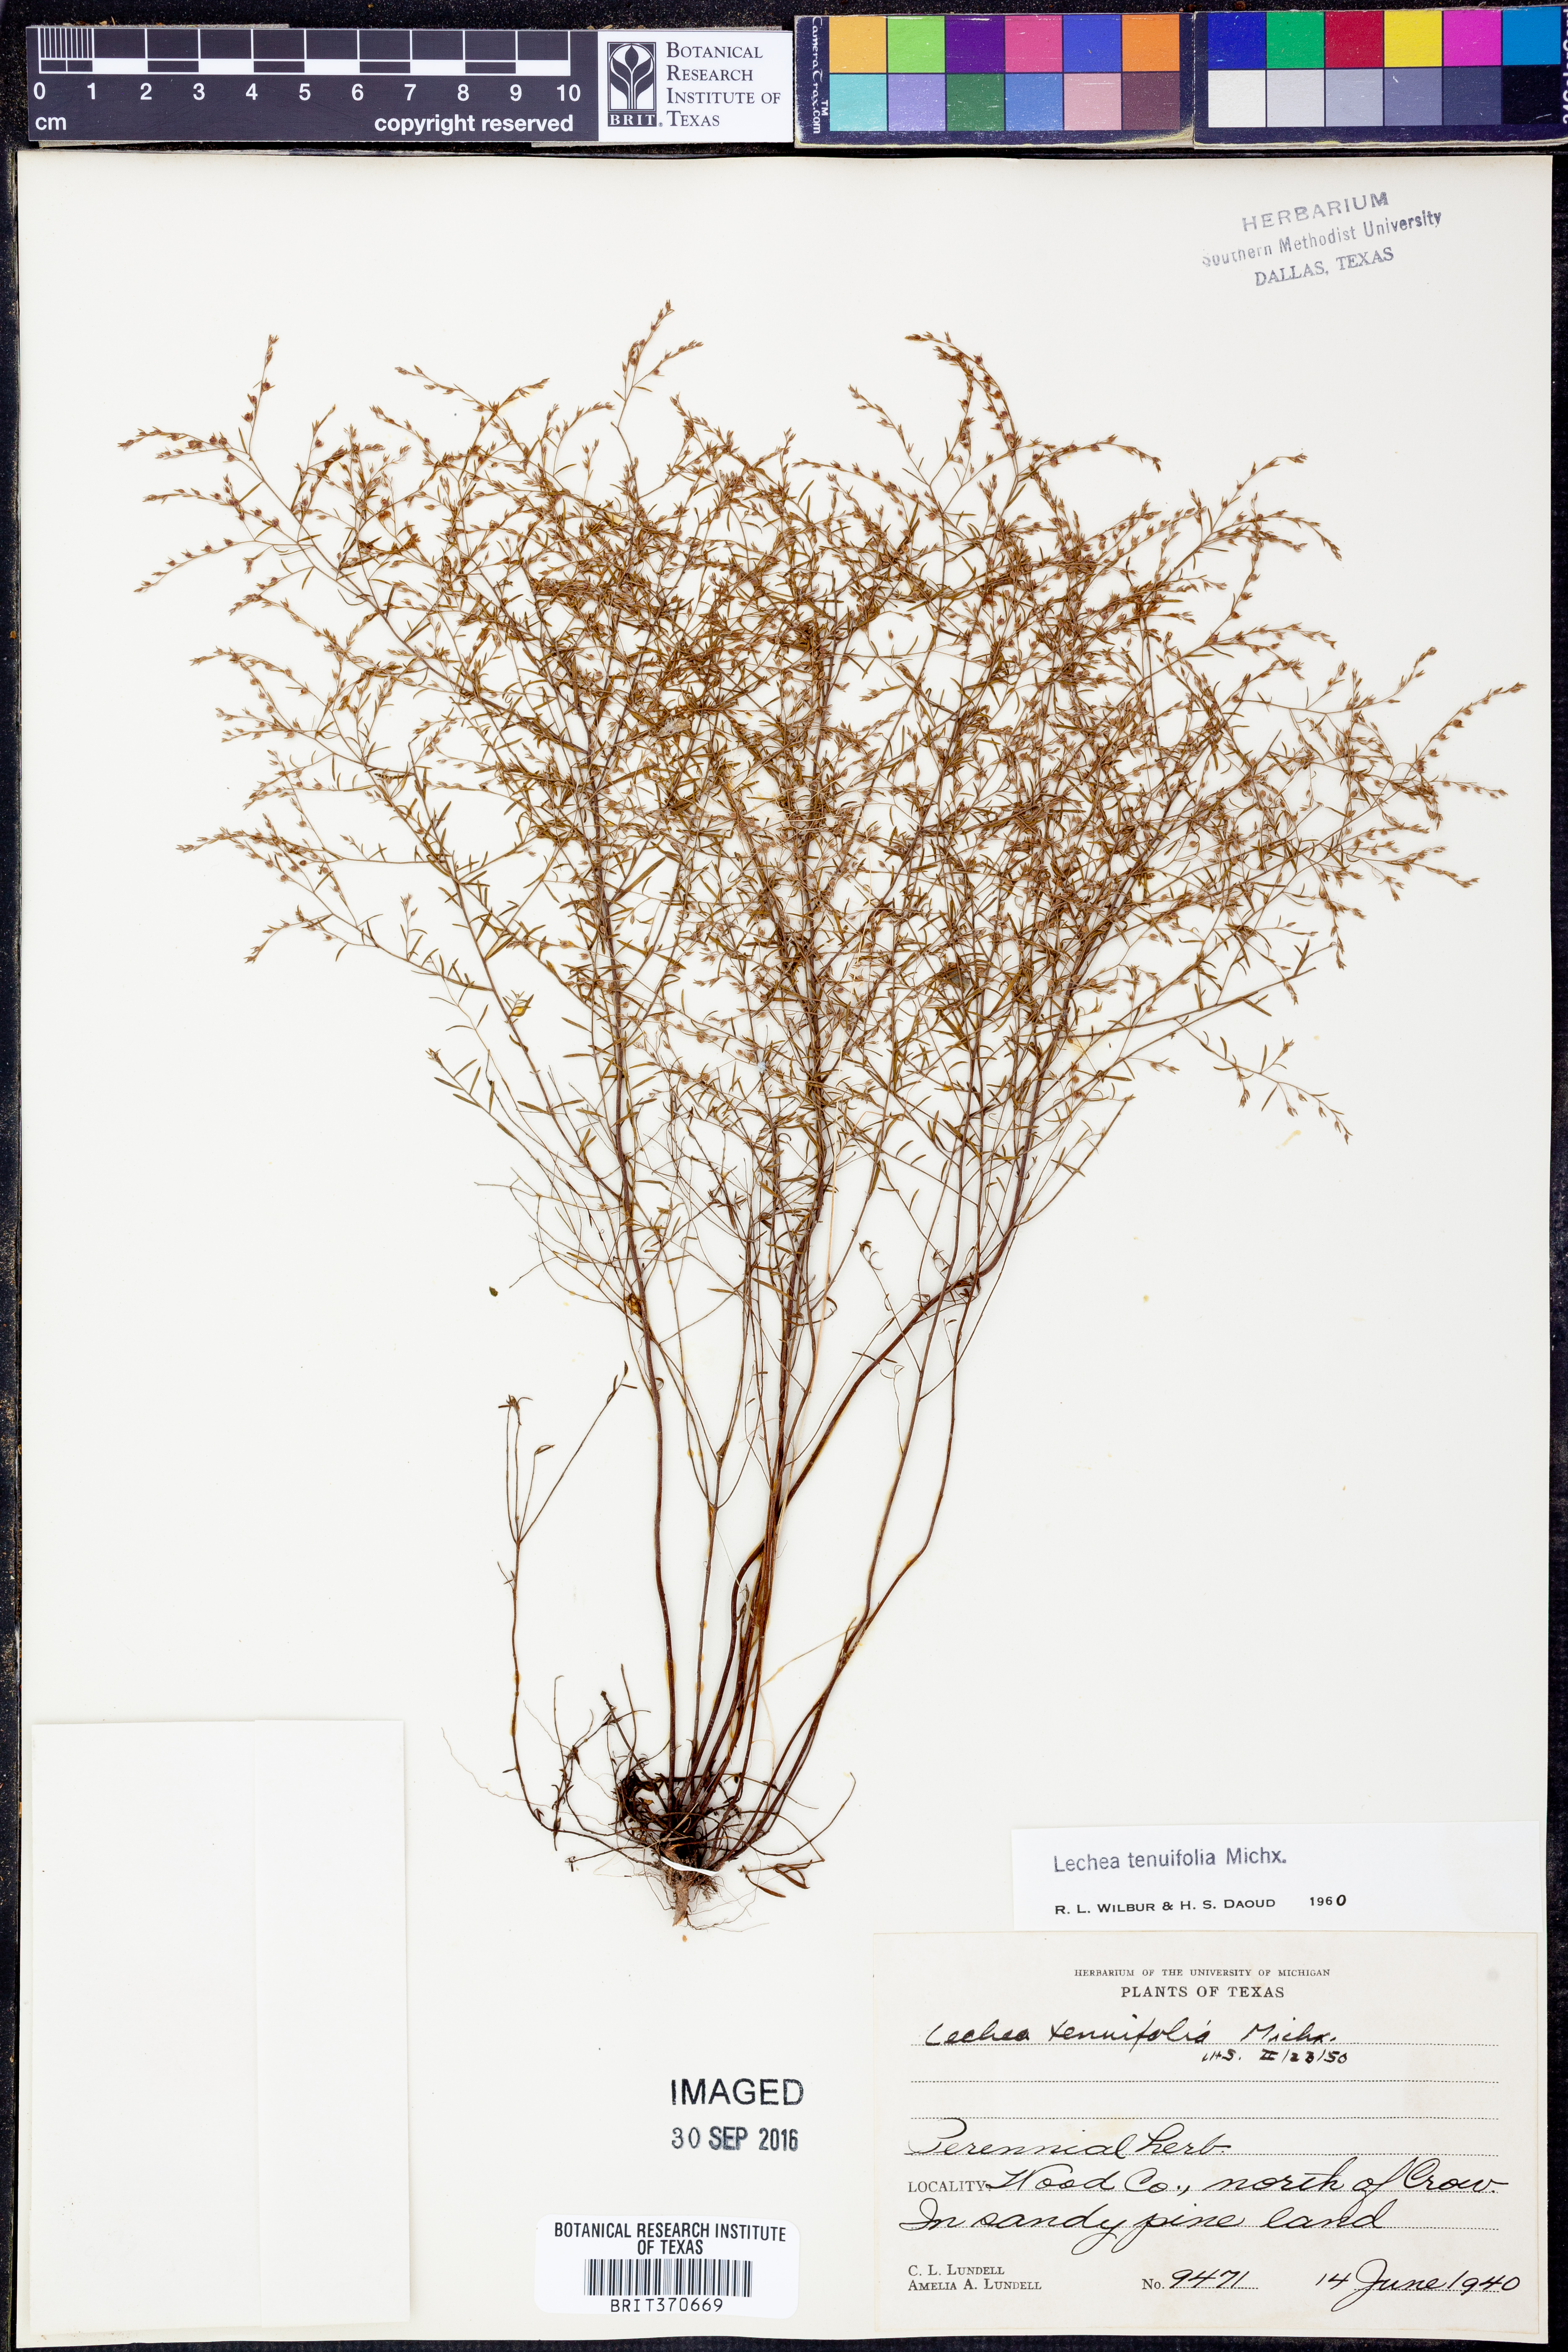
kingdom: Plantae
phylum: Tracheophyta
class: Magnoliopsida
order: Malvales
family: Cistaceae
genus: Lechea
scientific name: Lechea tenuifolia
